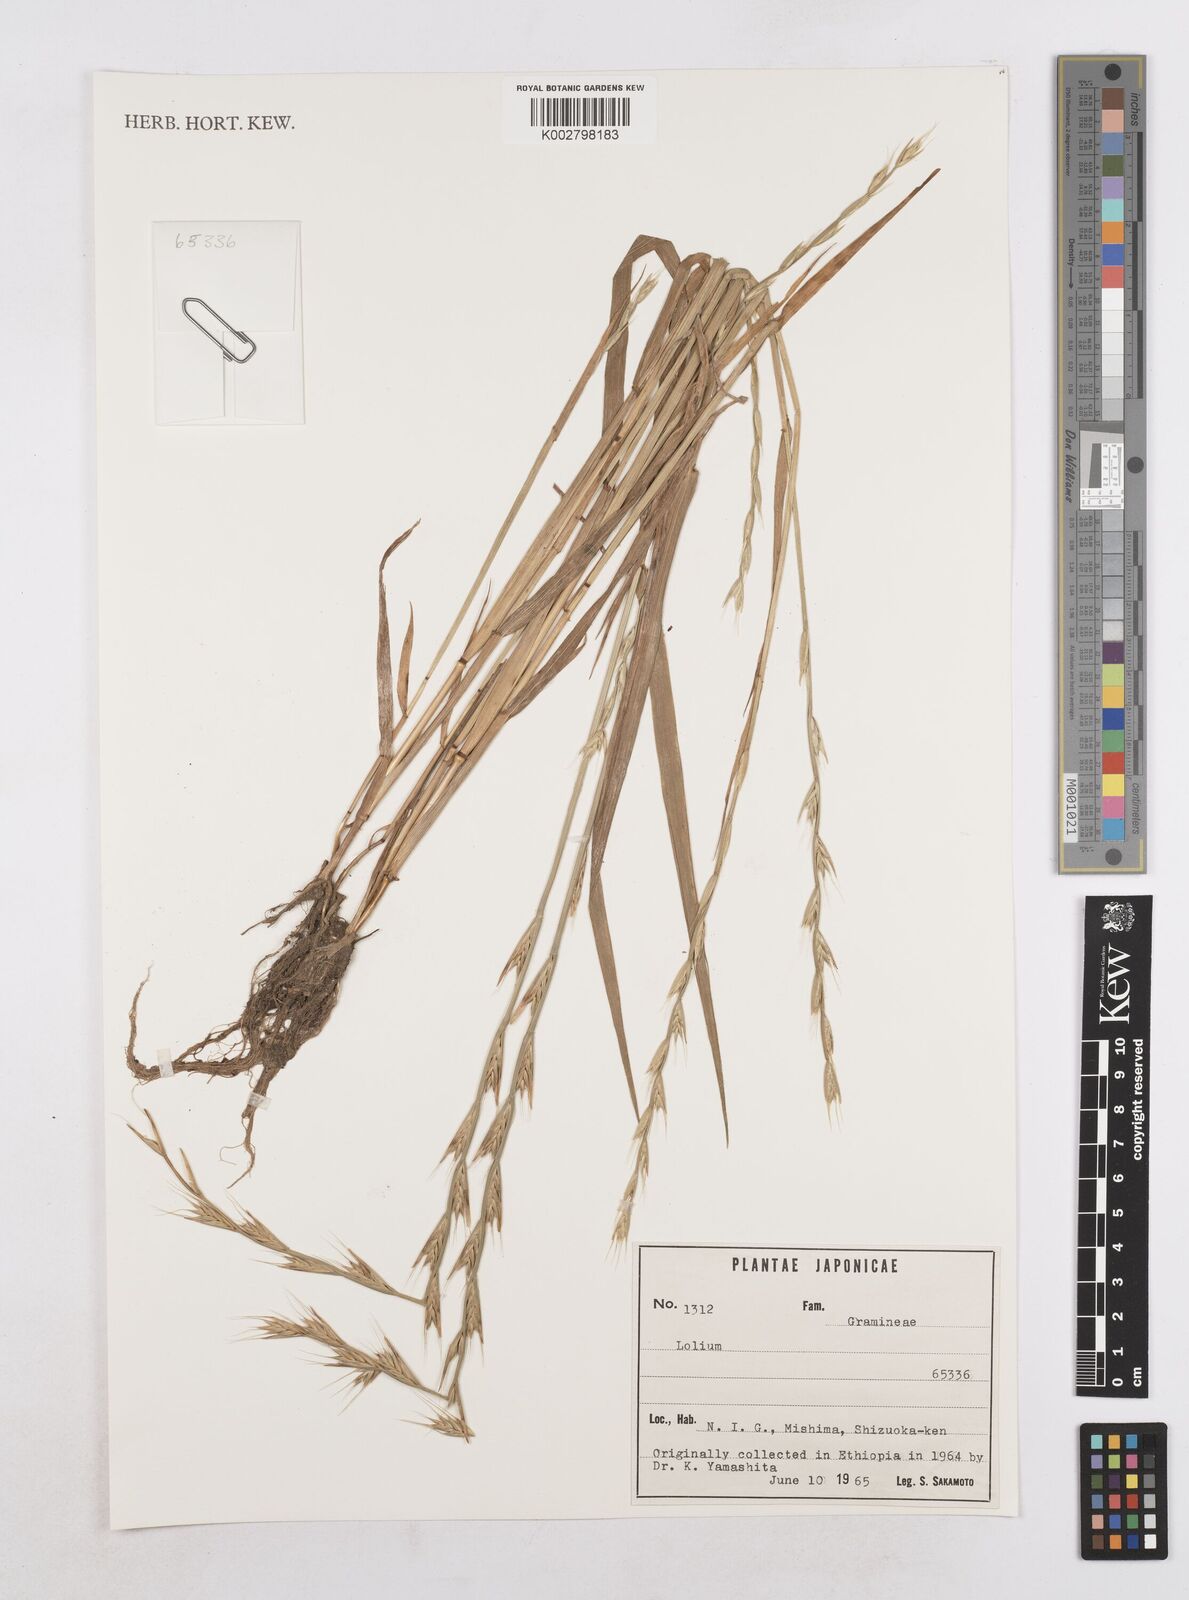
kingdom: Plantae
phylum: Tracheophyta
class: Liliopsida
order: Poales
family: Poaceae
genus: Lolium
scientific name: Lolium
